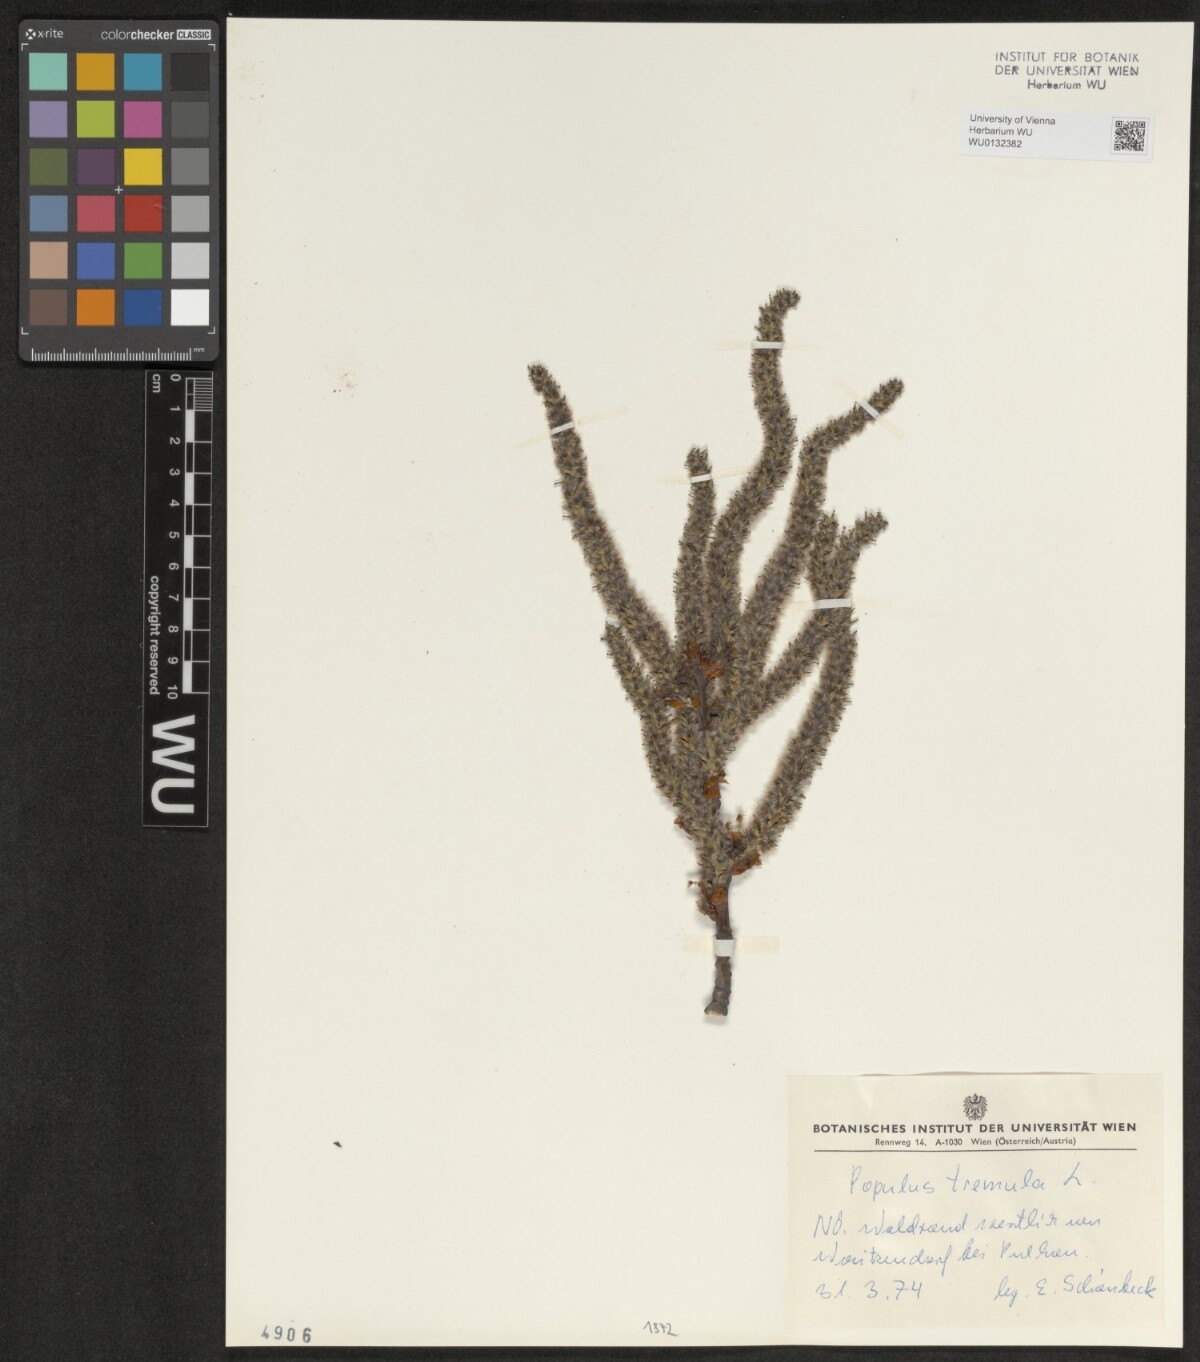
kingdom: Plantae
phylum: Tracheophyta
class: Magnoliopsida
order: Malpighiales
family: Salicaceae
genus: Populus
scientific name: Populus tremula
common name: European aspen
